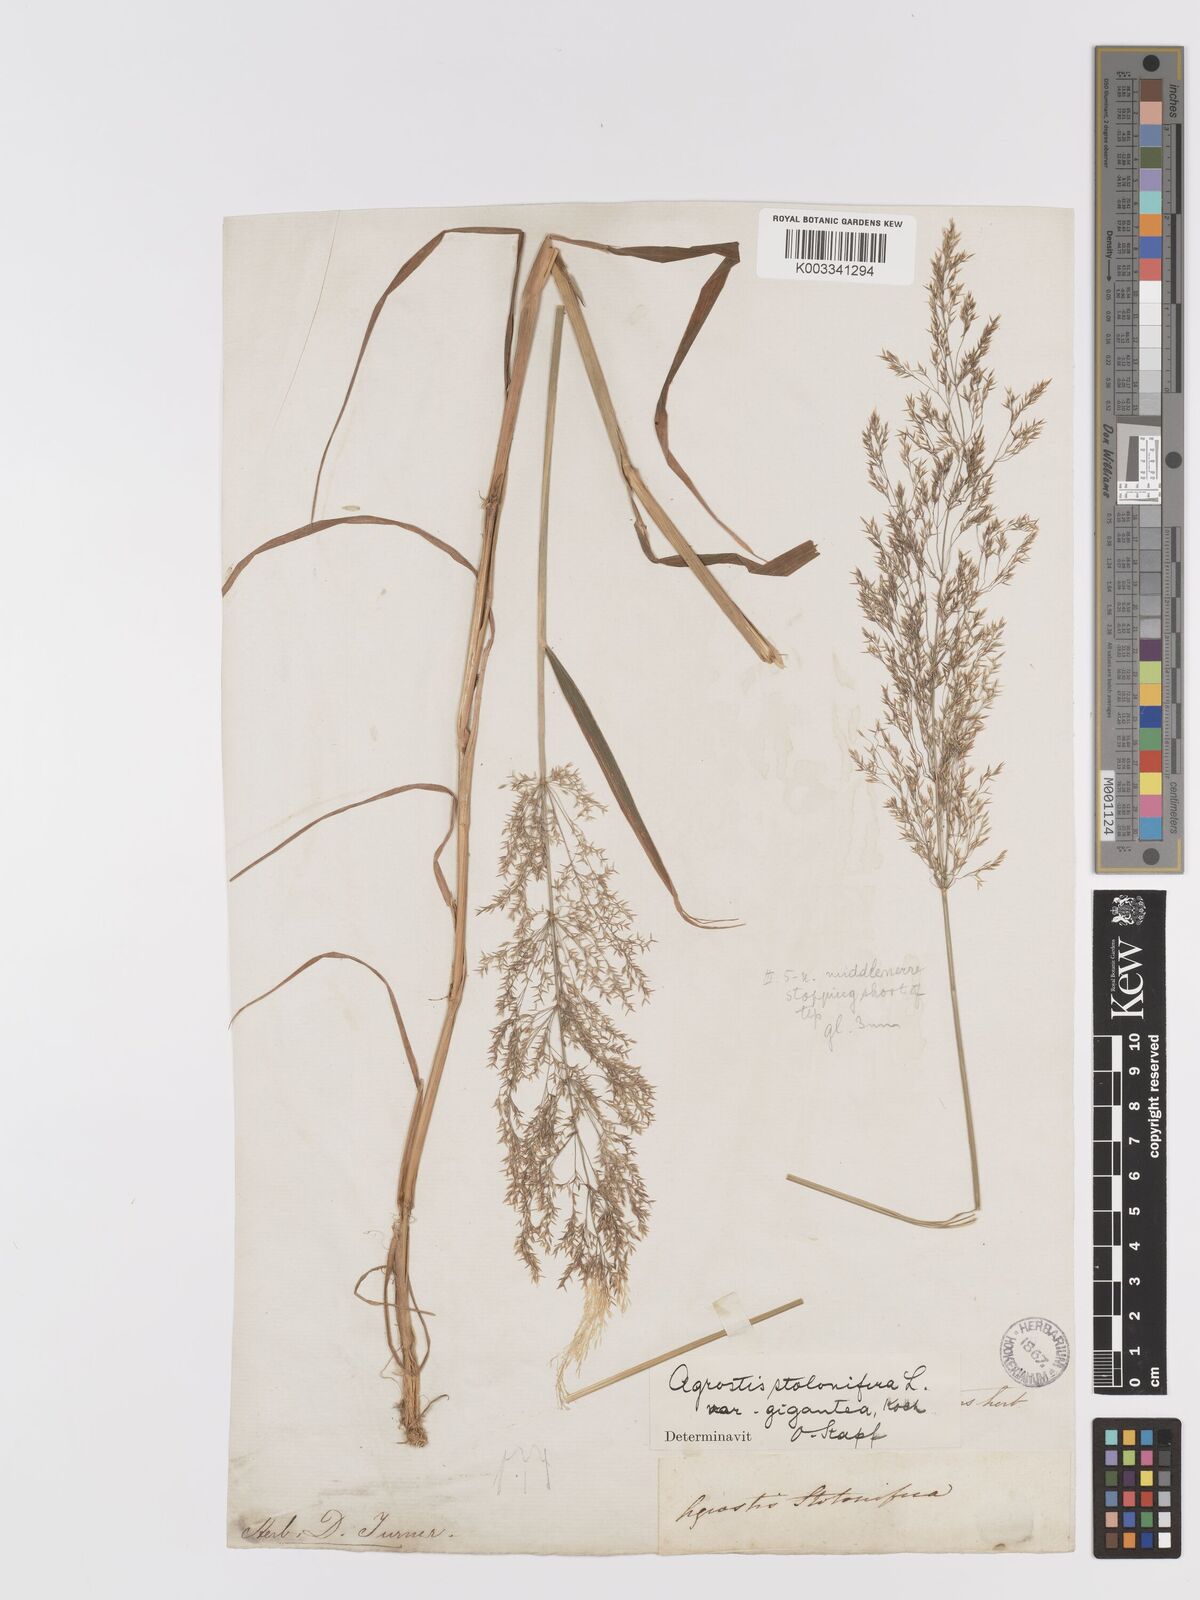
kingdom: Plantae
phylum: Tracheophyta
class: Liliopsida
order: Poales
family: Poaceae
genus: Agrostis
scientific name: Agrostis gigantea
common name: Black bent
